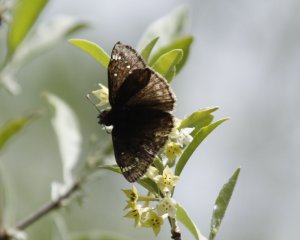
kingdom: Animalia
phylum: Arthropoda
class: Insecta
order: Lepidoptera
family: Hesperiidae
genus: Gesta
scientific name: Gesta
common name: Juvenal's Duskywing
